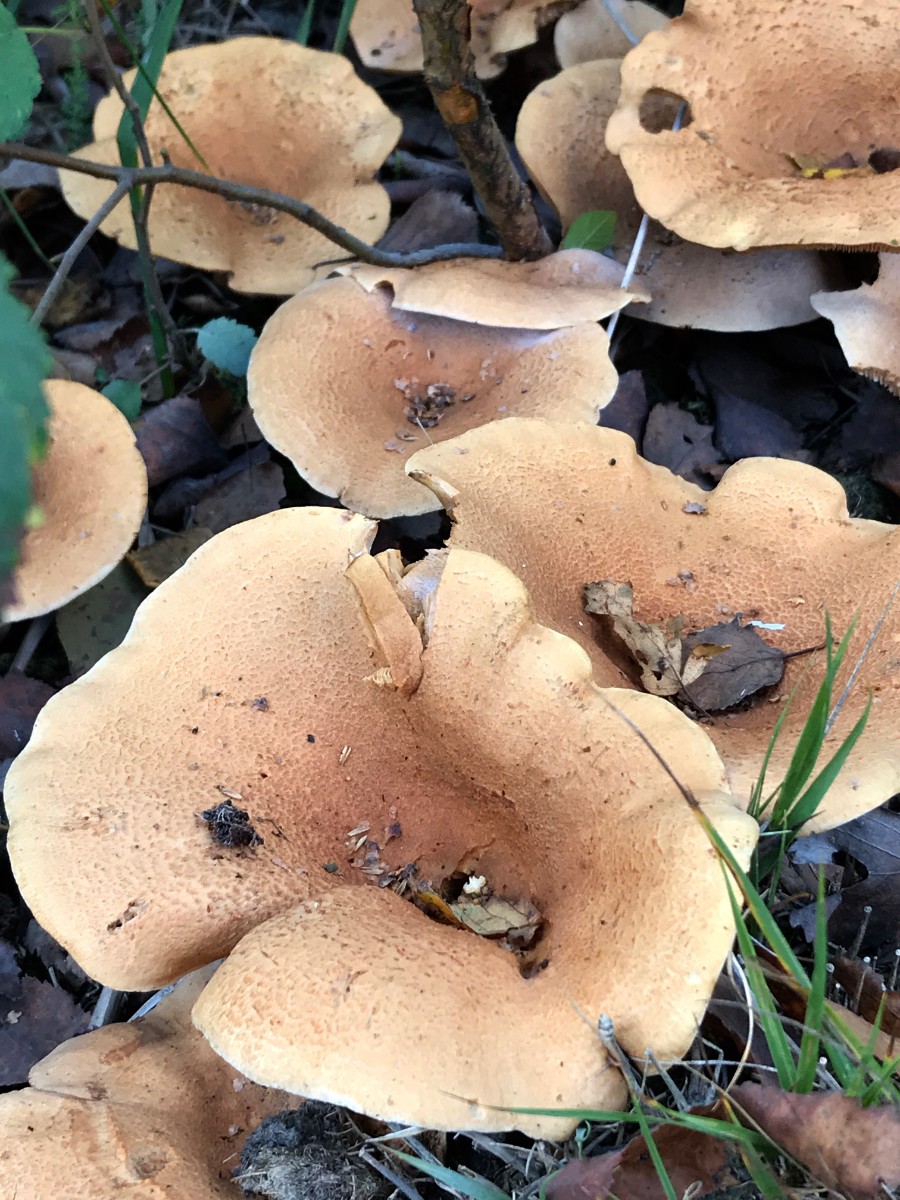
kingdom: Fungi
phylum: Basidiomycota
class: Agaricomycetes
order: Russulales
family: Russulaceae
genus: Lactarius
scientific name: Lactarius helvus
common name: mose-mælkehat
